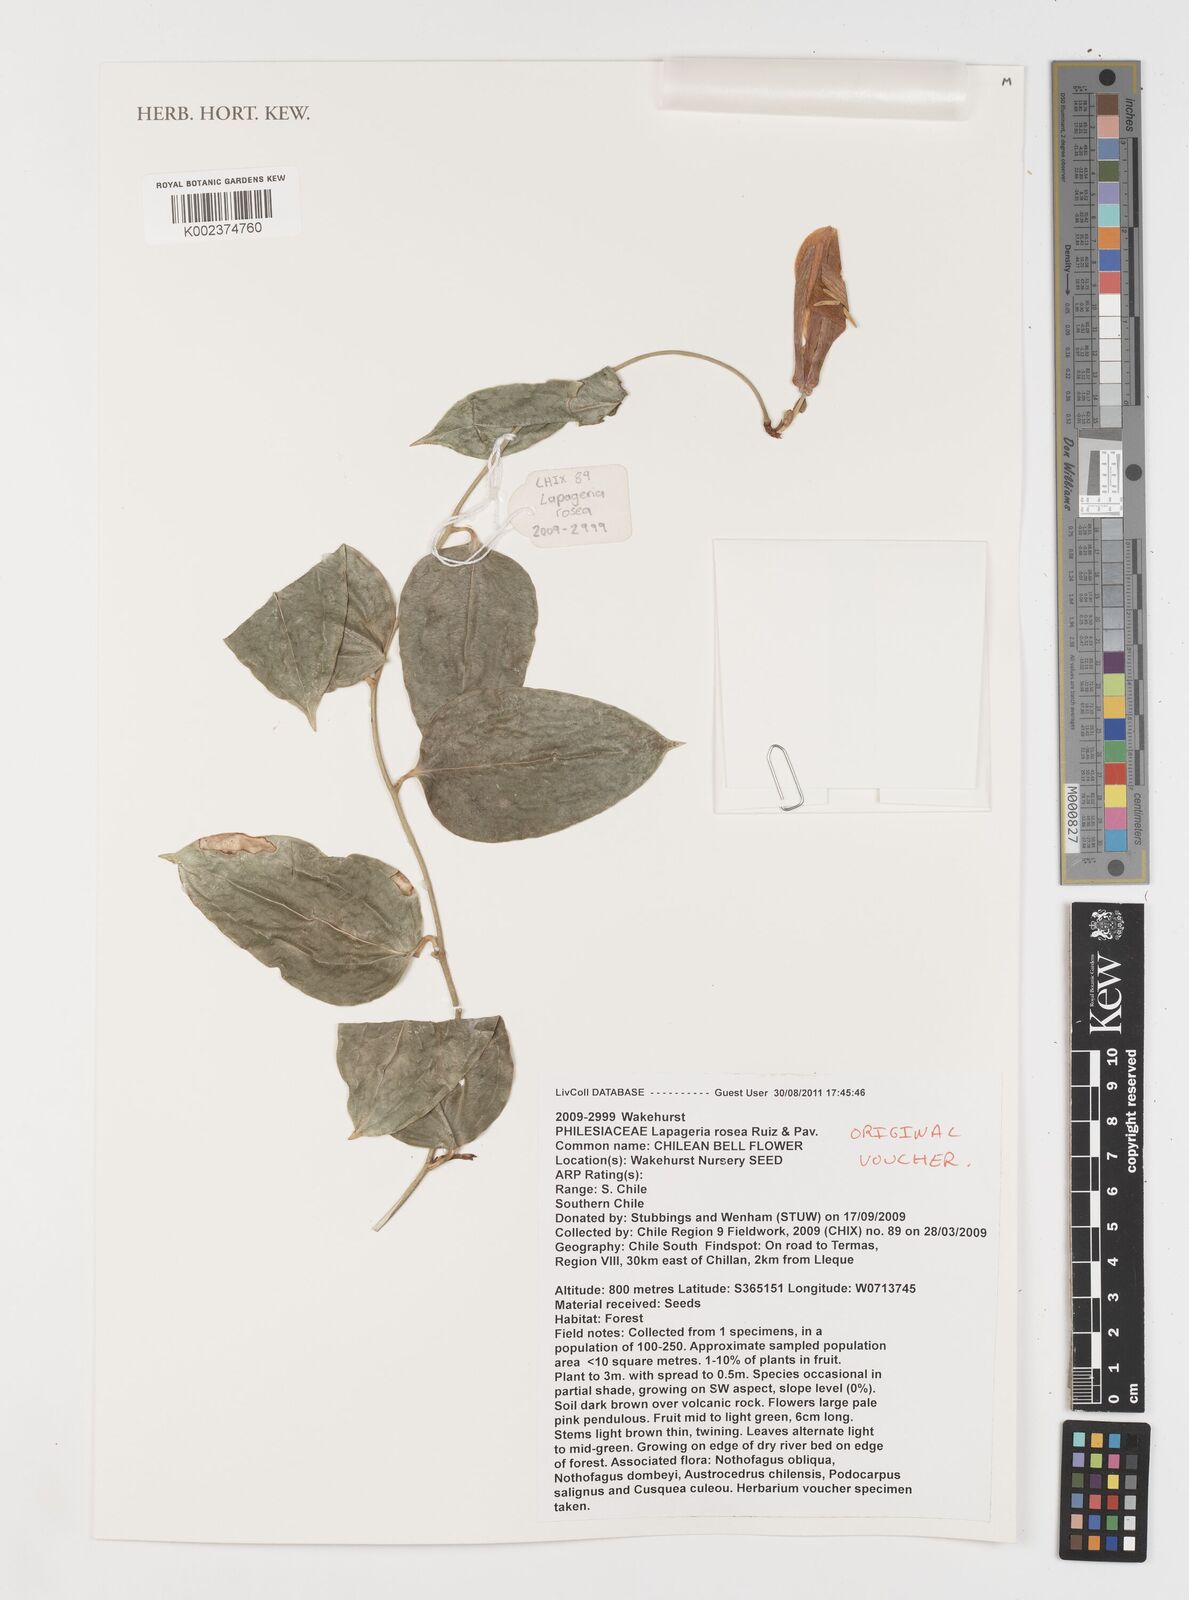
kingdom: Plantae
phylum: Tracheophyta
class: Liliopsida
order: Liliales
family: Philesiaceae
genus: Lapageria
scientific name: Lapageria rosea
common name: Chilean-bellflower
